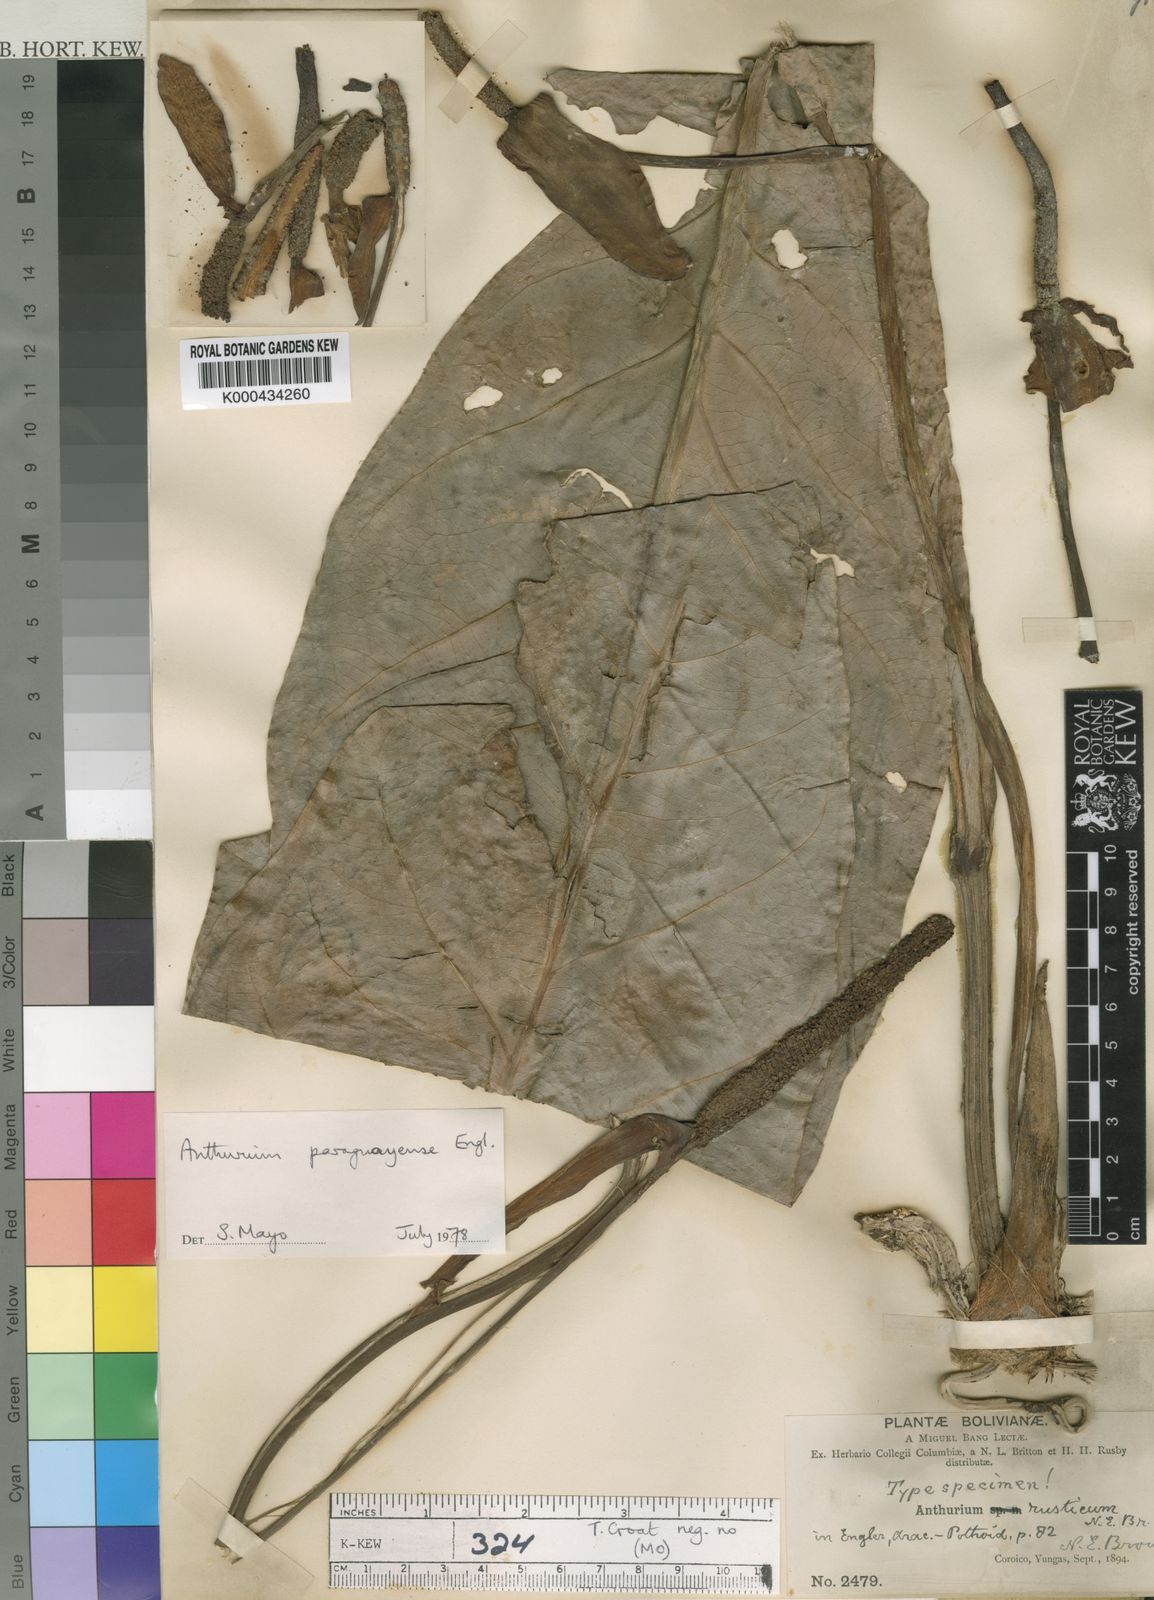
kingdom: Plantae
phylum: Tracheophyta
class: Liliopsida
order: Alismatales
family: Araceae
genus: Anthurium
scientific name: Anthurium paraguayense
